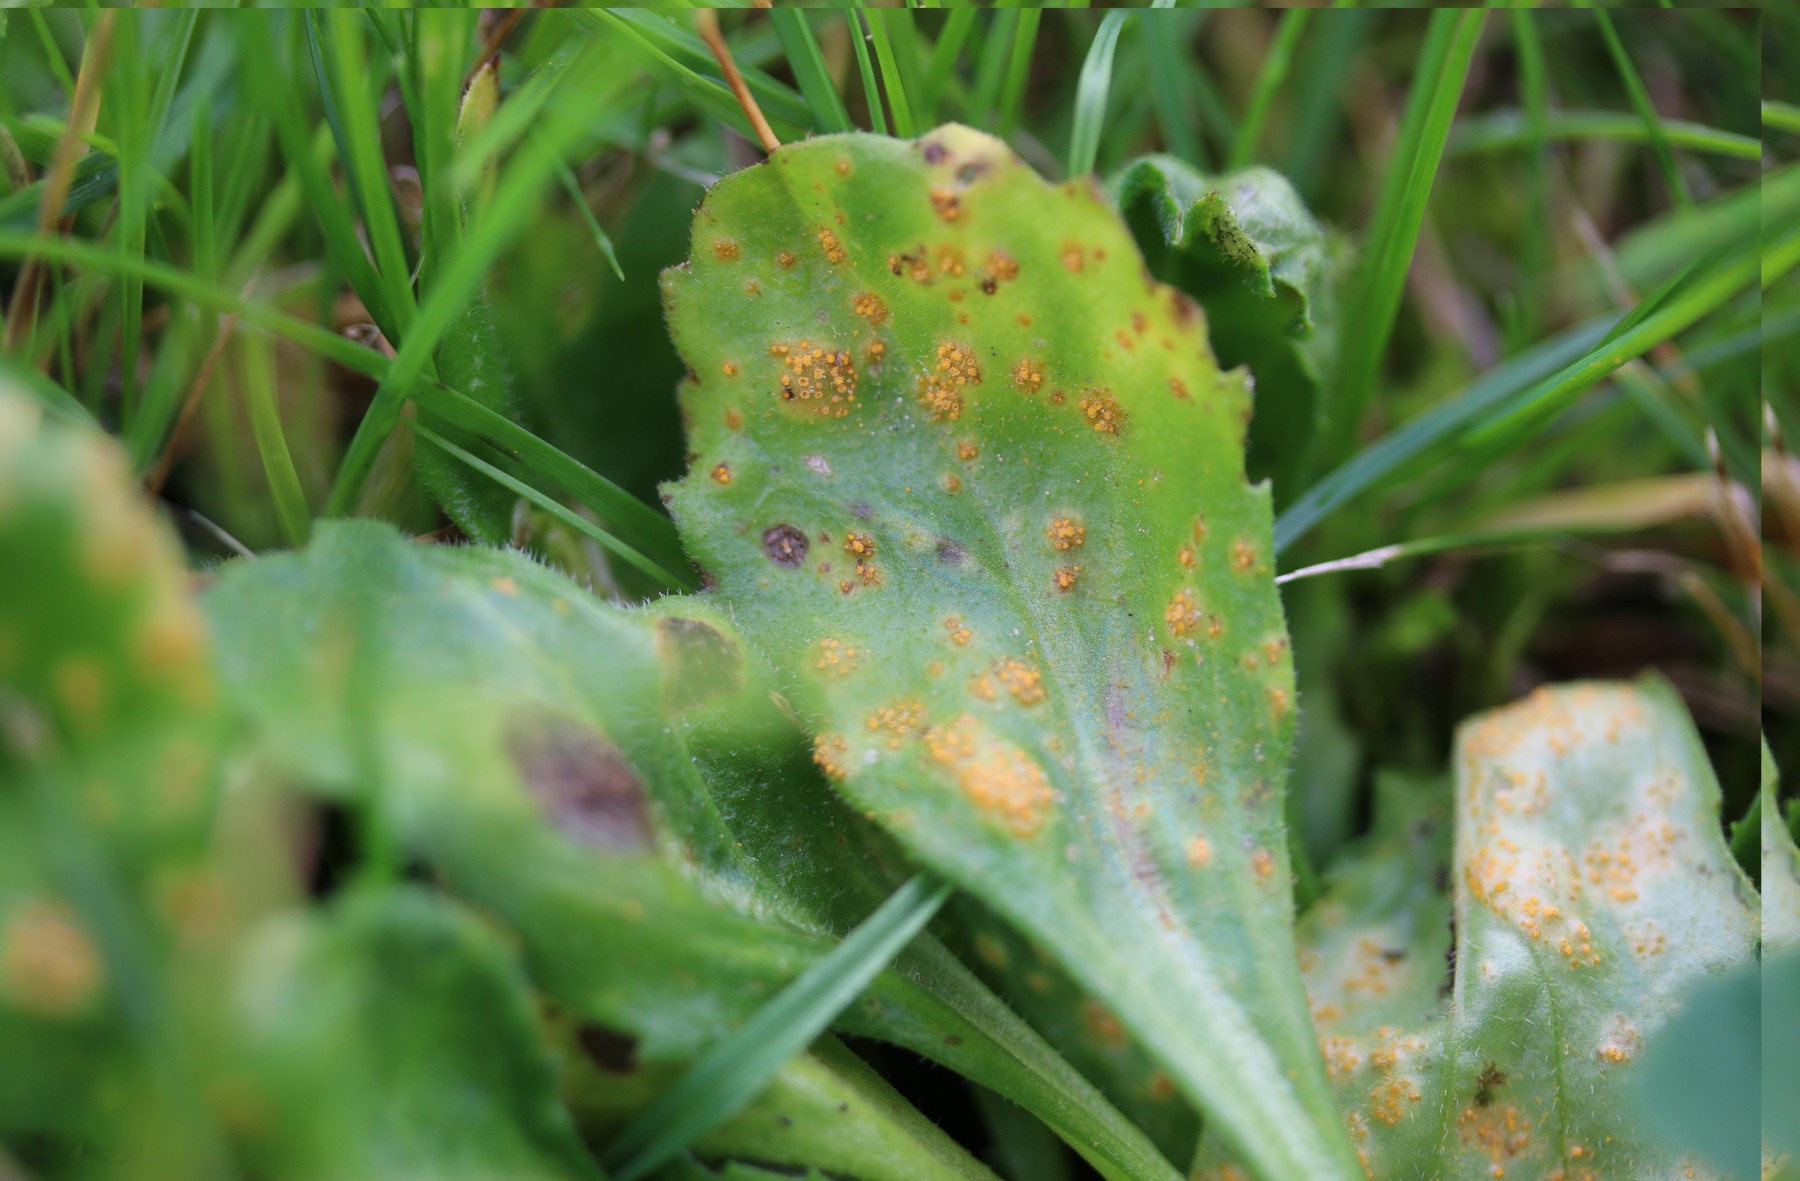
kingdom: Fungi
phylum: Basidiomycota
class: Pucciniomycetes
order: Pucciniales
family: Pucciniaceae
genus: Puccinia
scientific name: Puccinia distincta
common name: Daisy rust
